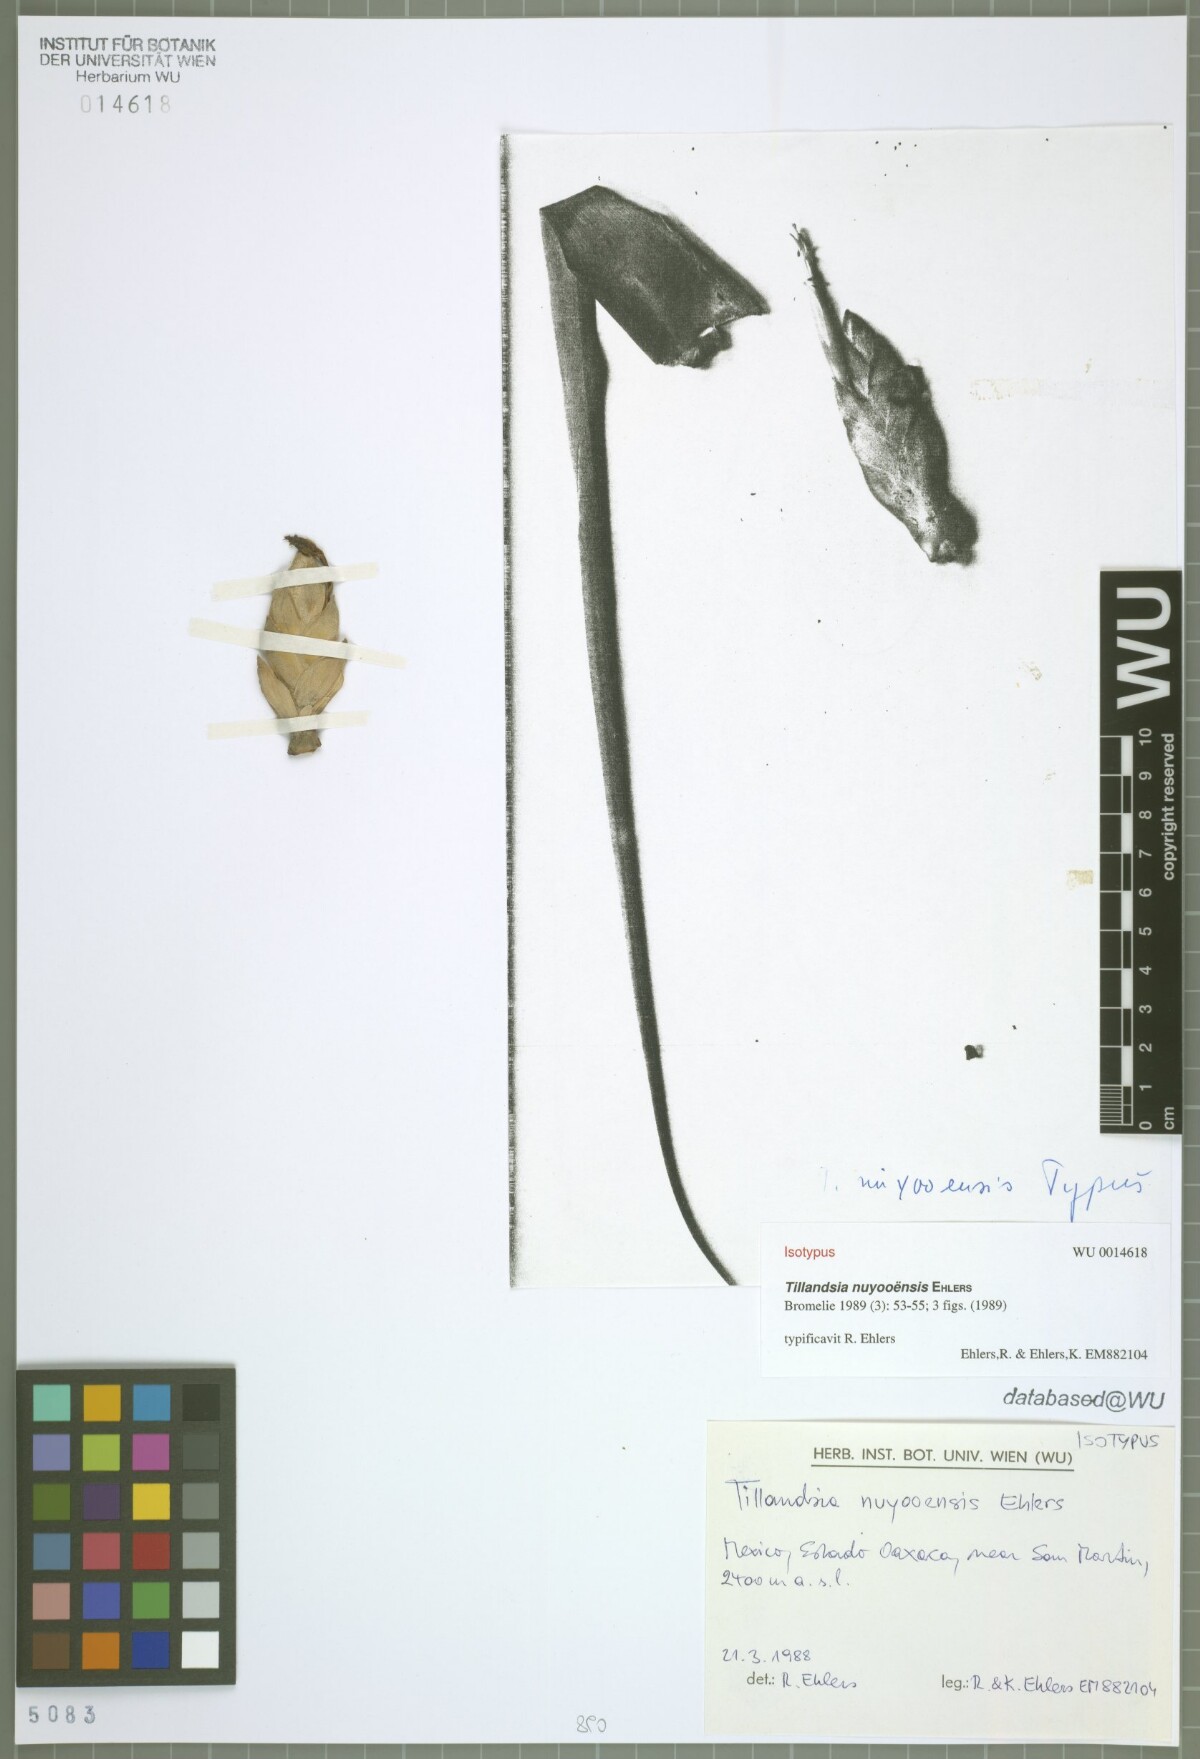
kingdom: Plantae
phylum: Tracheophyta
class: Liliopsida
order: Poales
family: Bromeliaceae
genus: Tillandsia
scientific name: Tillandsia nuyooensis
